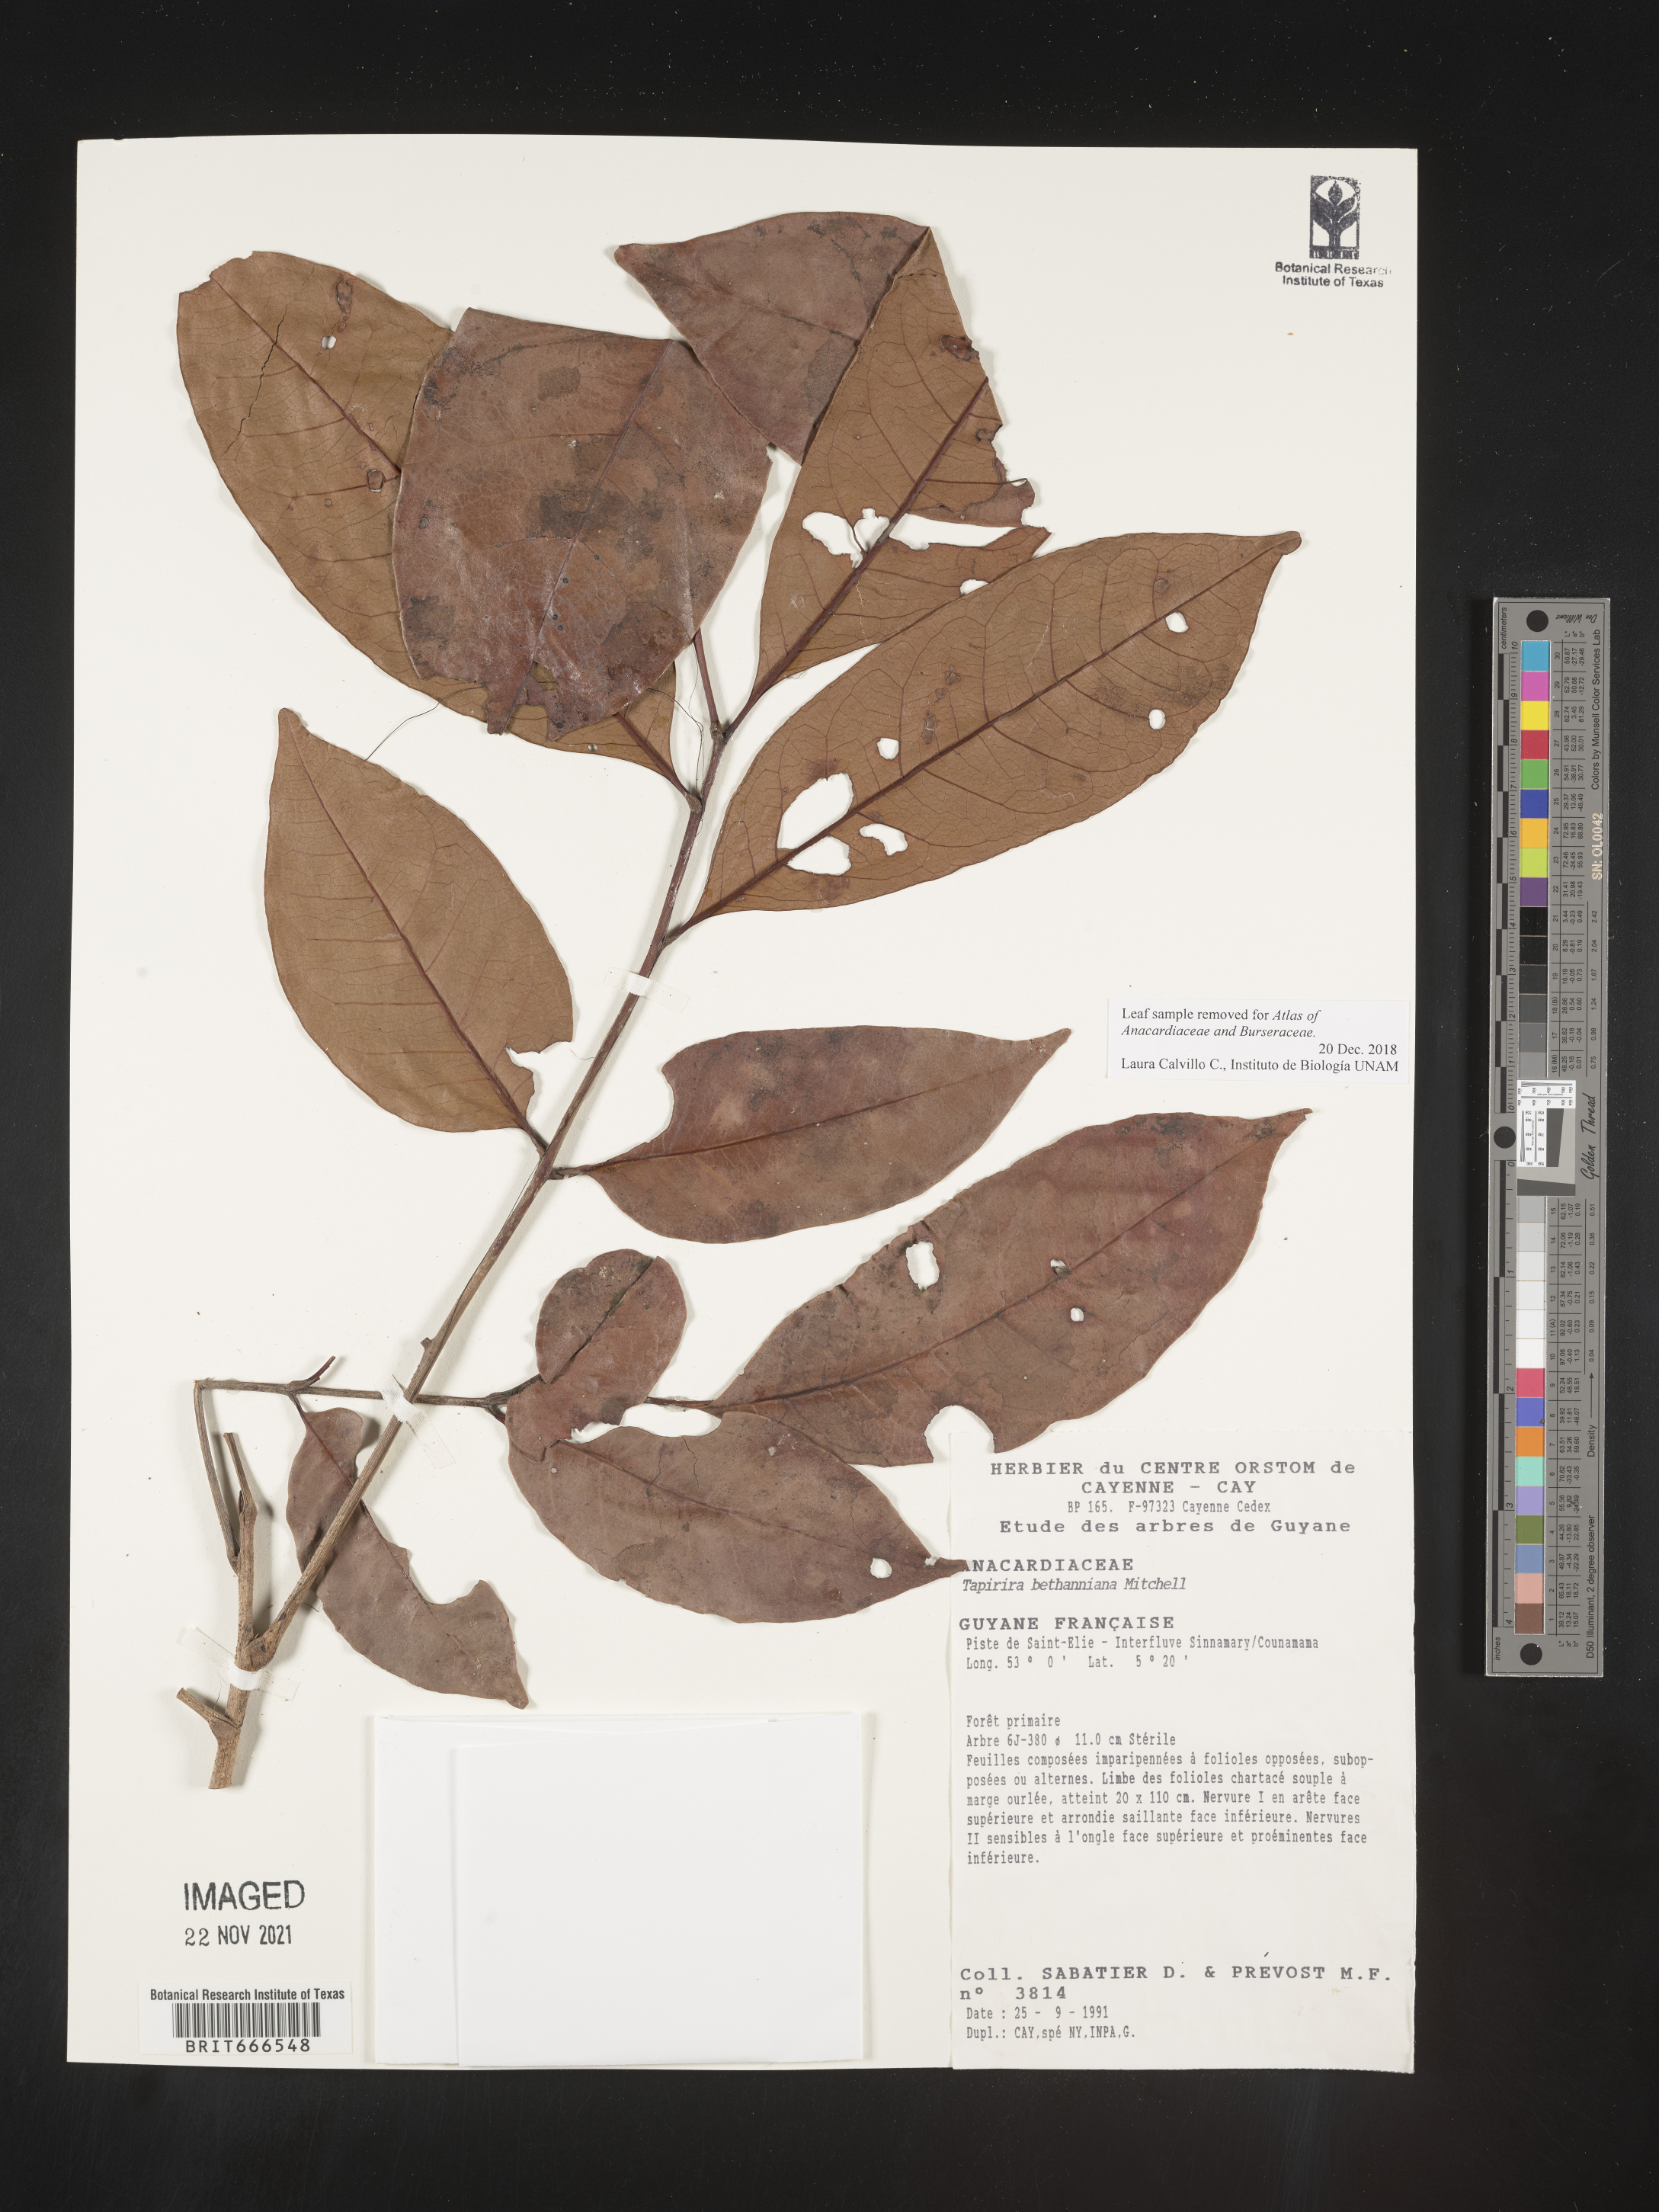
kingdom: Plantae
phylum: Tracheophyta
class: Magnoliopsida
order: Sapindales
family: Anacardiaceae
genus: Tapirira
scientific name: Tapirira
